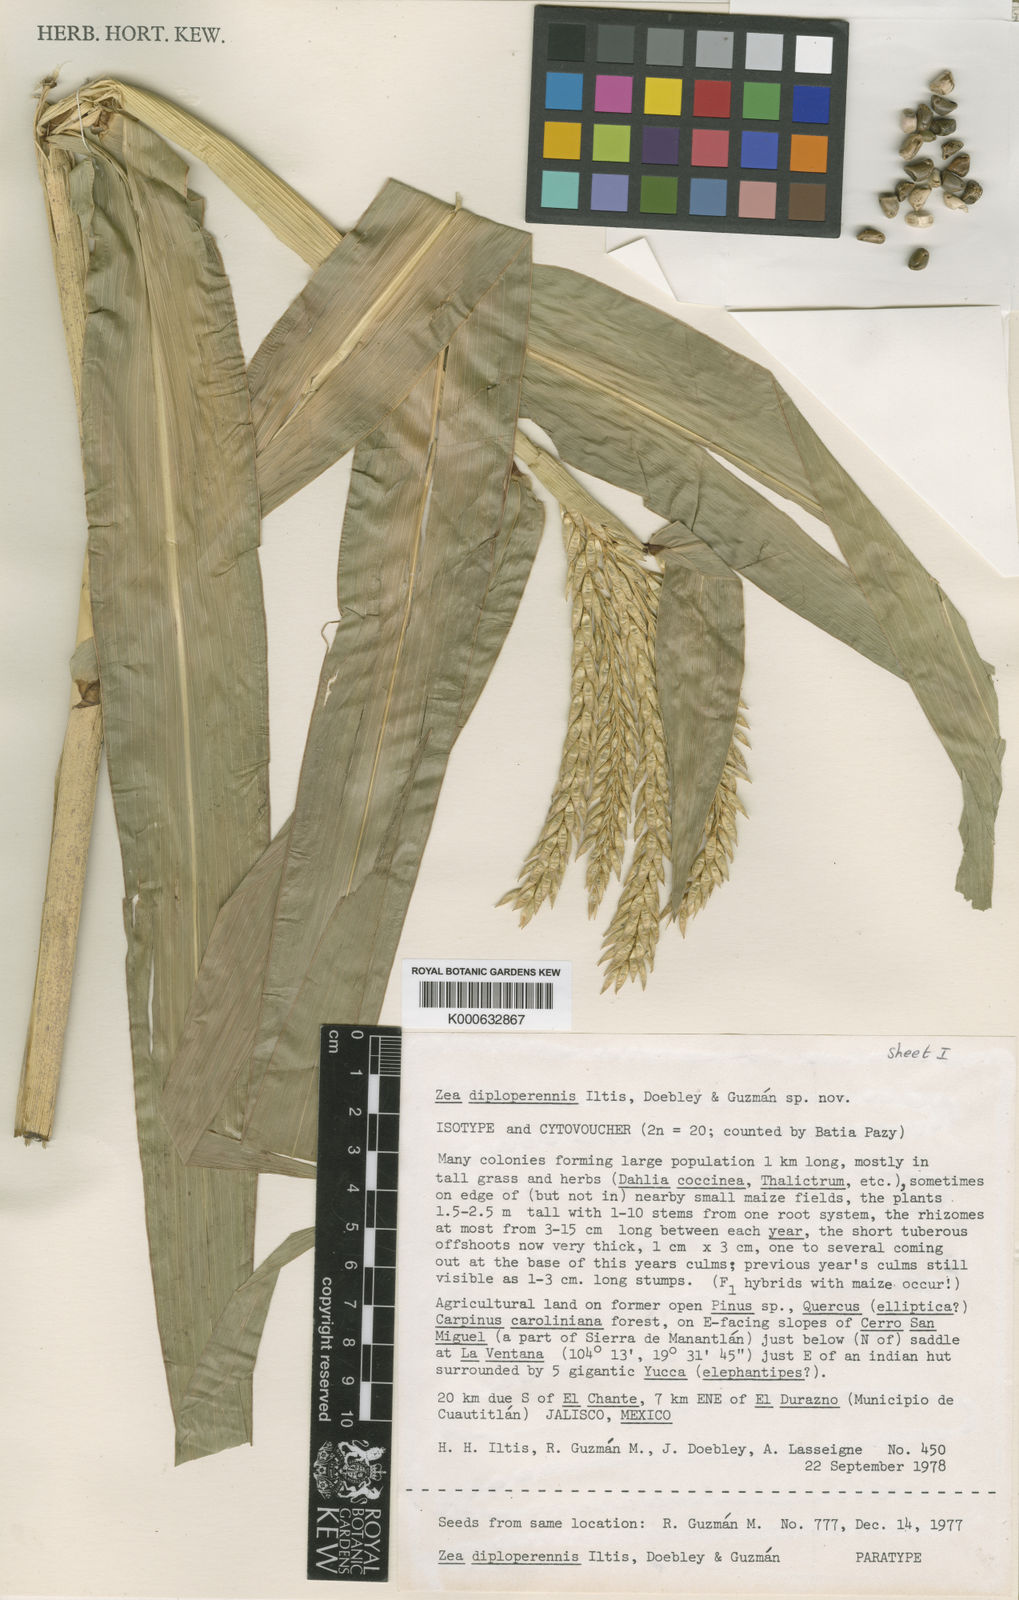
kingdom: Plantae
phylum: Tracheophyta
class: Liliopsida
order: Poales
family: Poaceae
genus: Zea
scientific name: Zea
